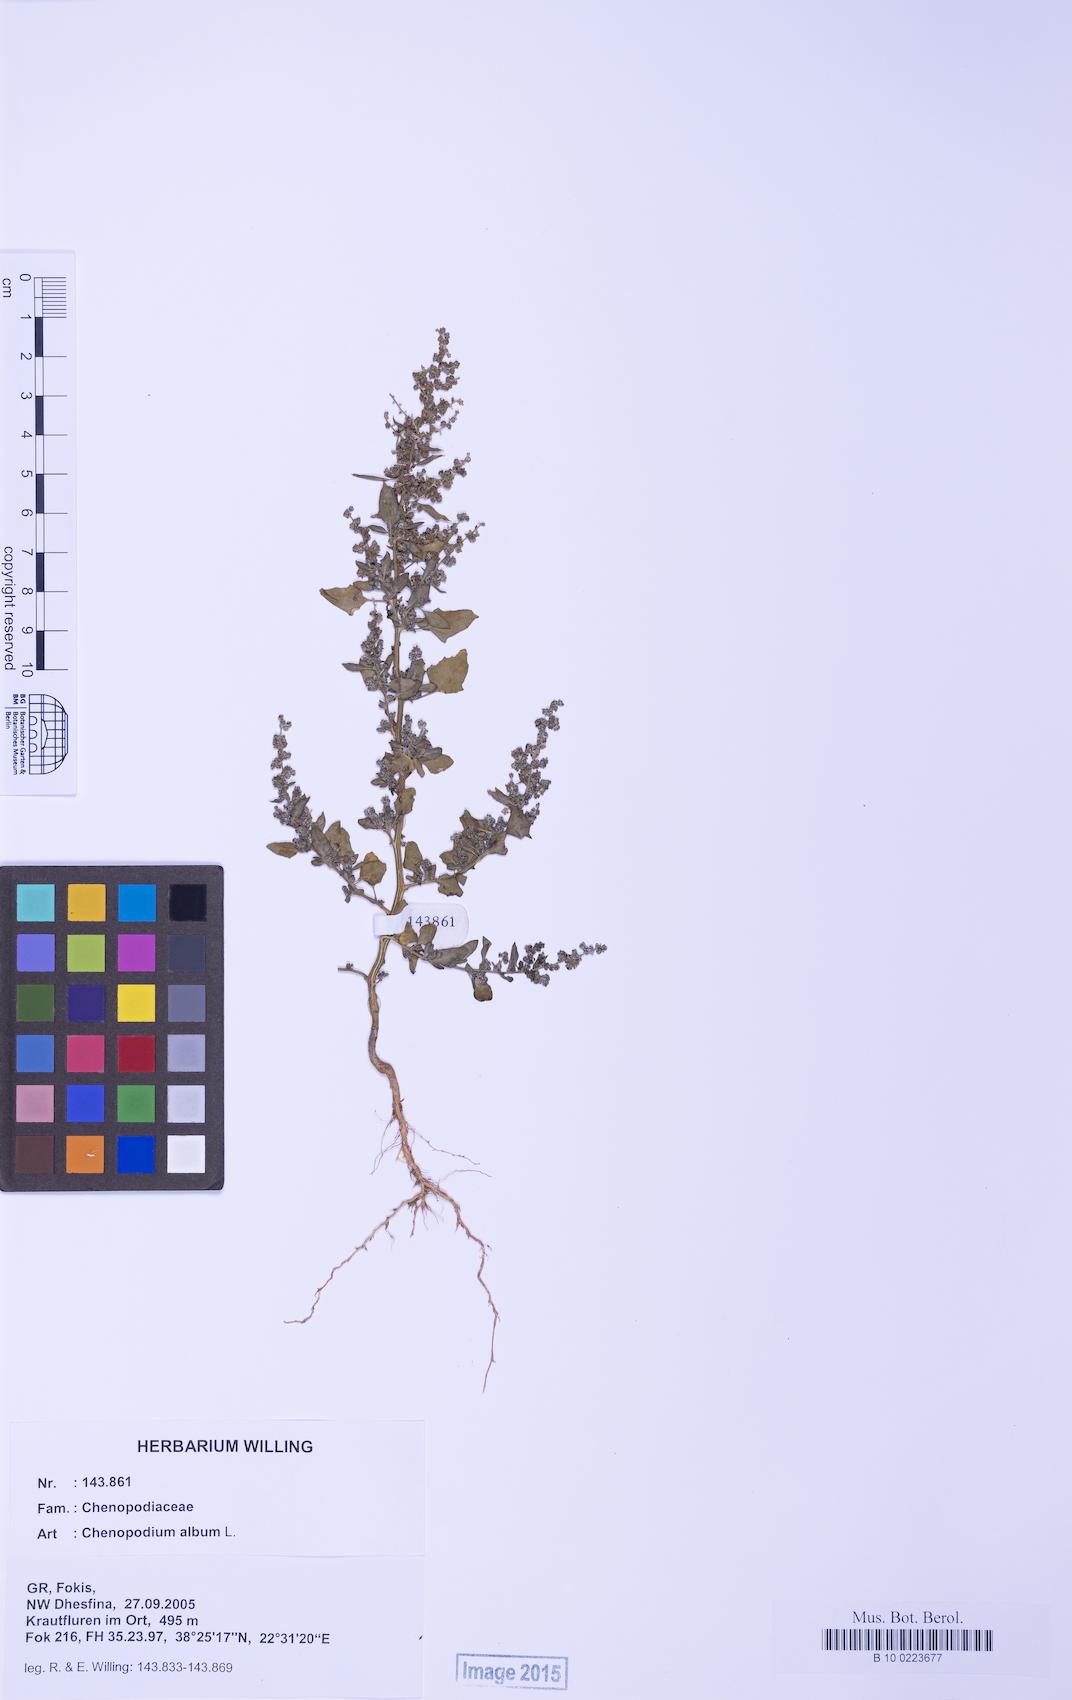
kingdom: Plantae
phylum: Tracheophyta
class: Magnoliopsida
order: Caryophyllales
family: Amaranthaceae
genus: Chenopodium
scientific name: Chenopodium album
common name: Fat-hen
